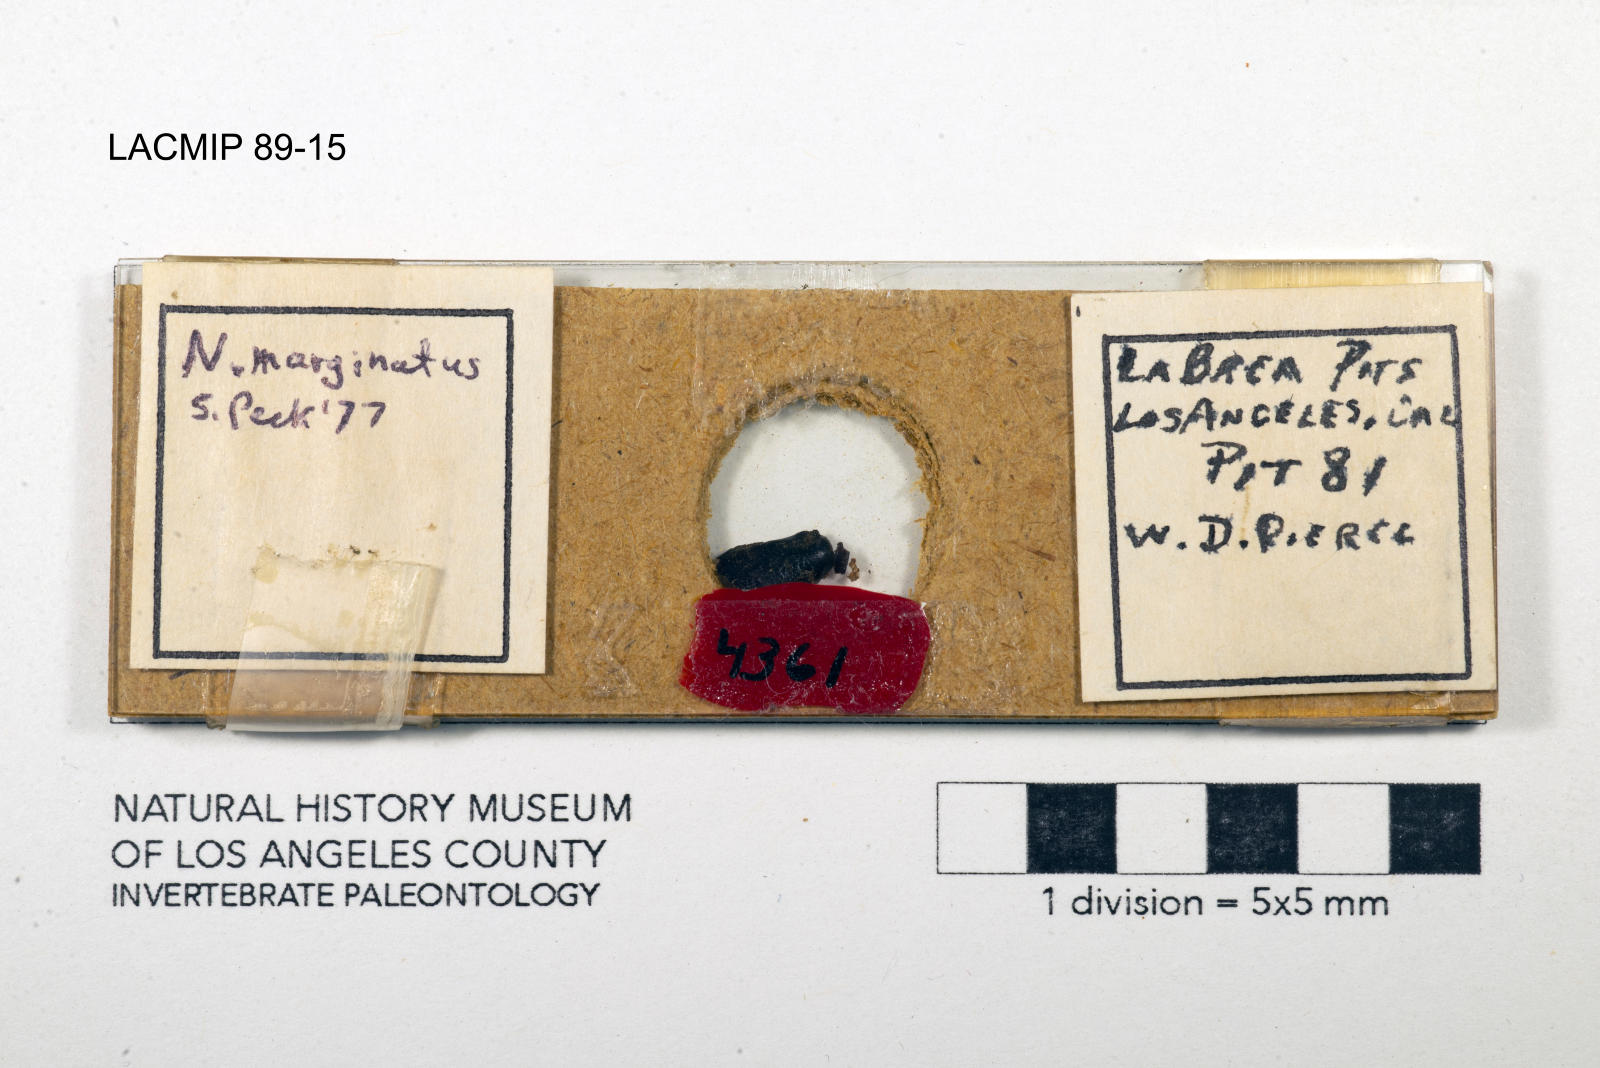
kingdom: Animalia
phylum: Arthropoda
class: Insecta
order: Coleoptera
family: Staphylinidae
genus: Nicrophorus
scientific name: Nicrophorus marginatus
